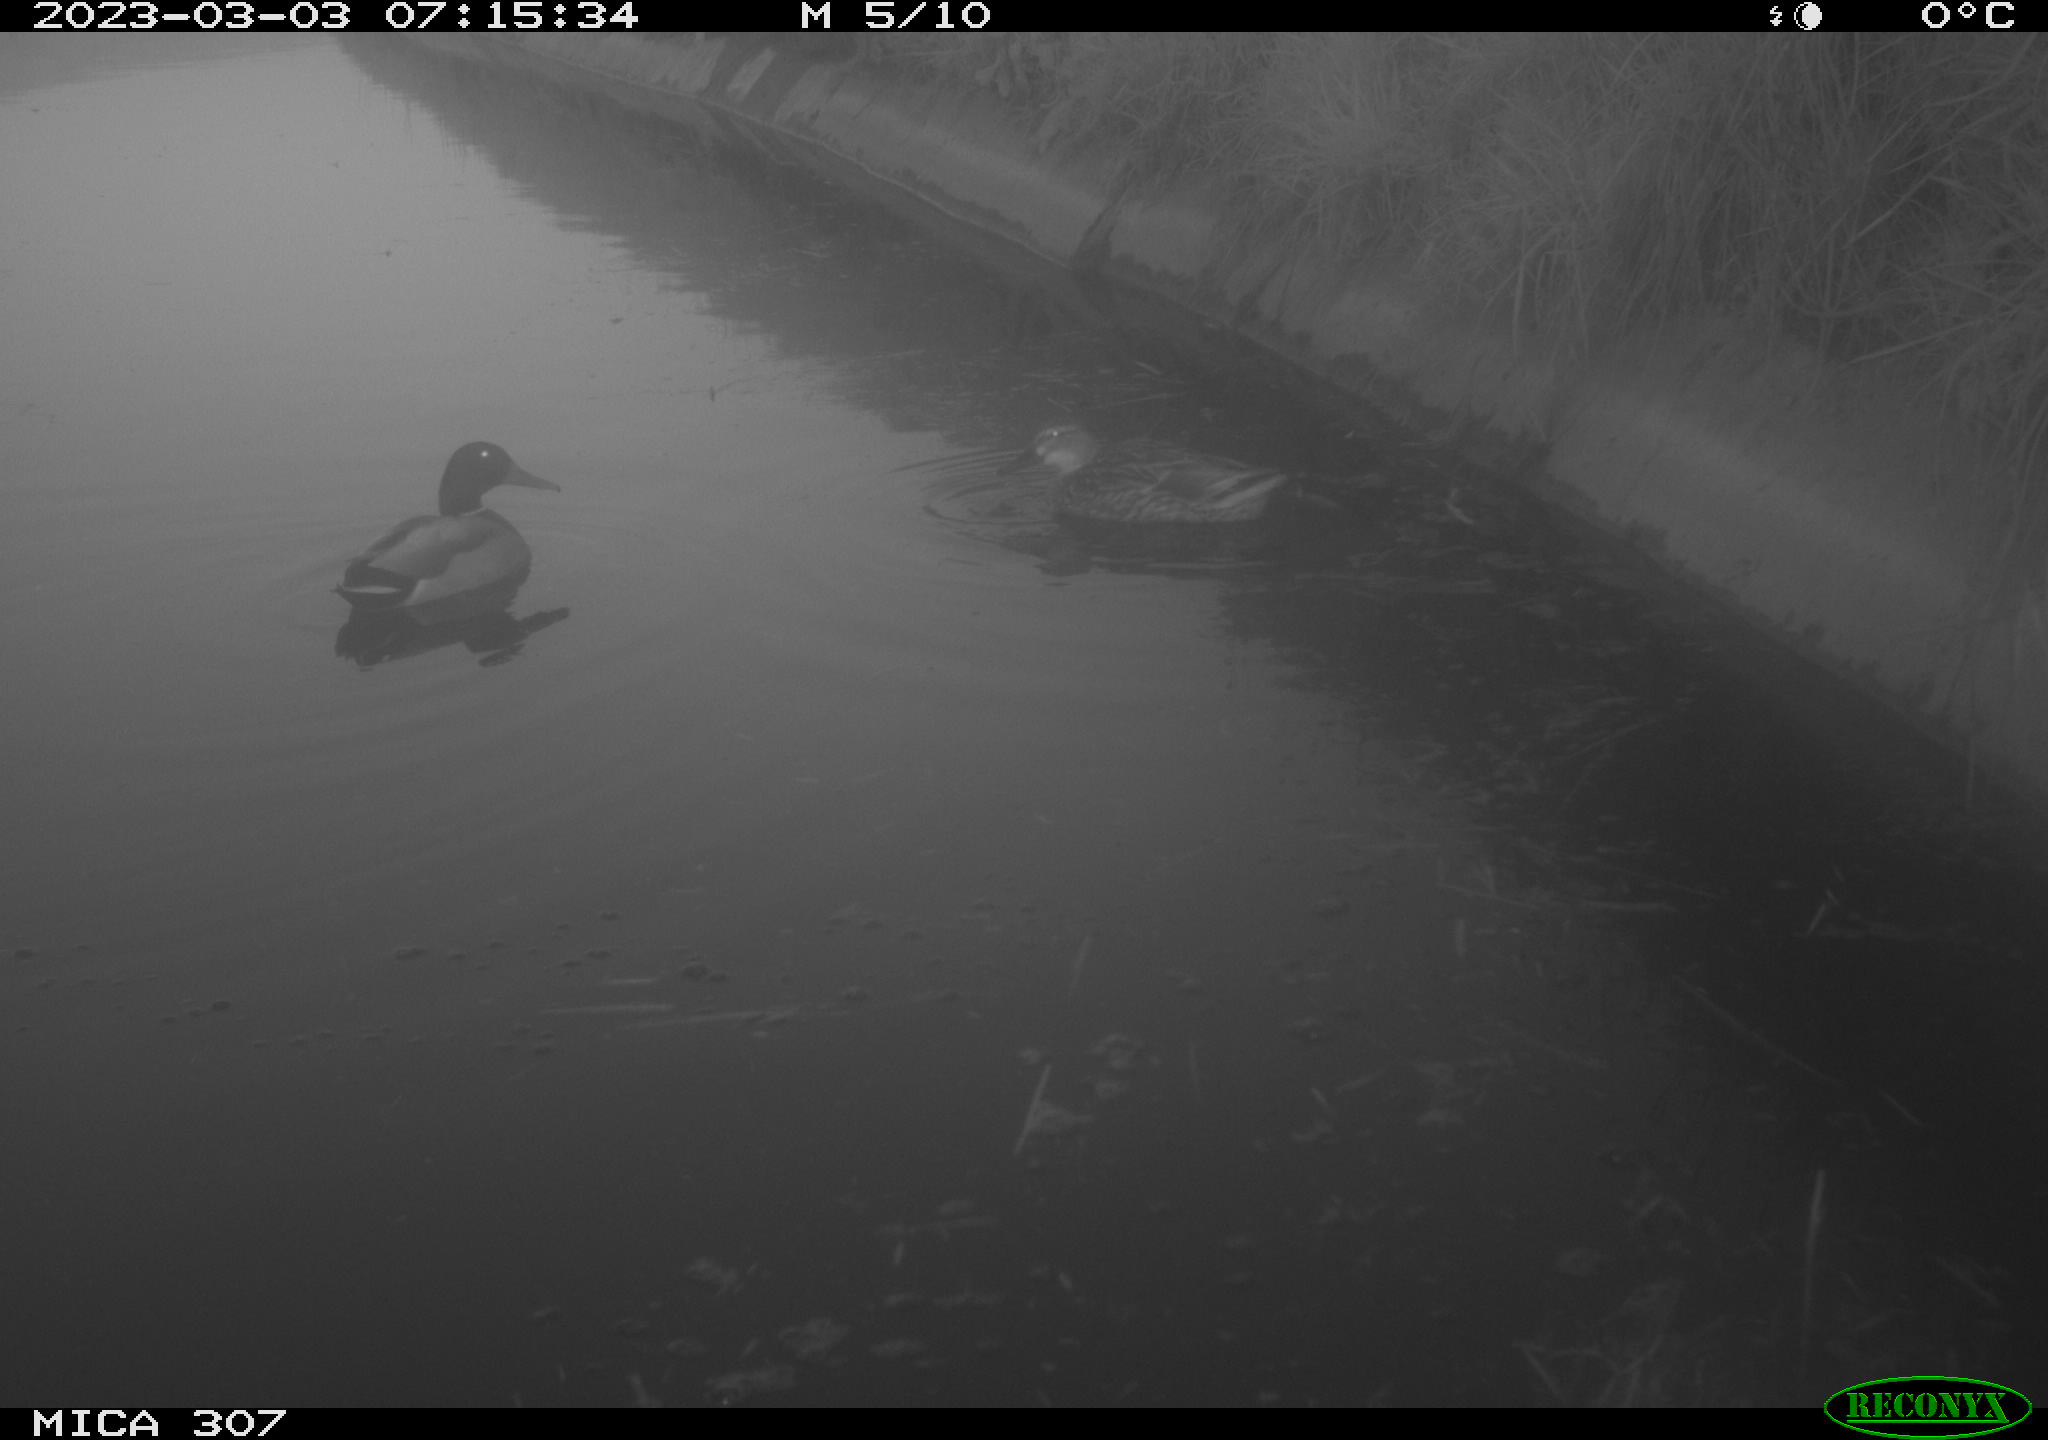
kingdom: Animalia
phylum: Chordata
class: Aves
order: Anseriformes
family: Anatidae
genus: Anas
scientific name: Anas
